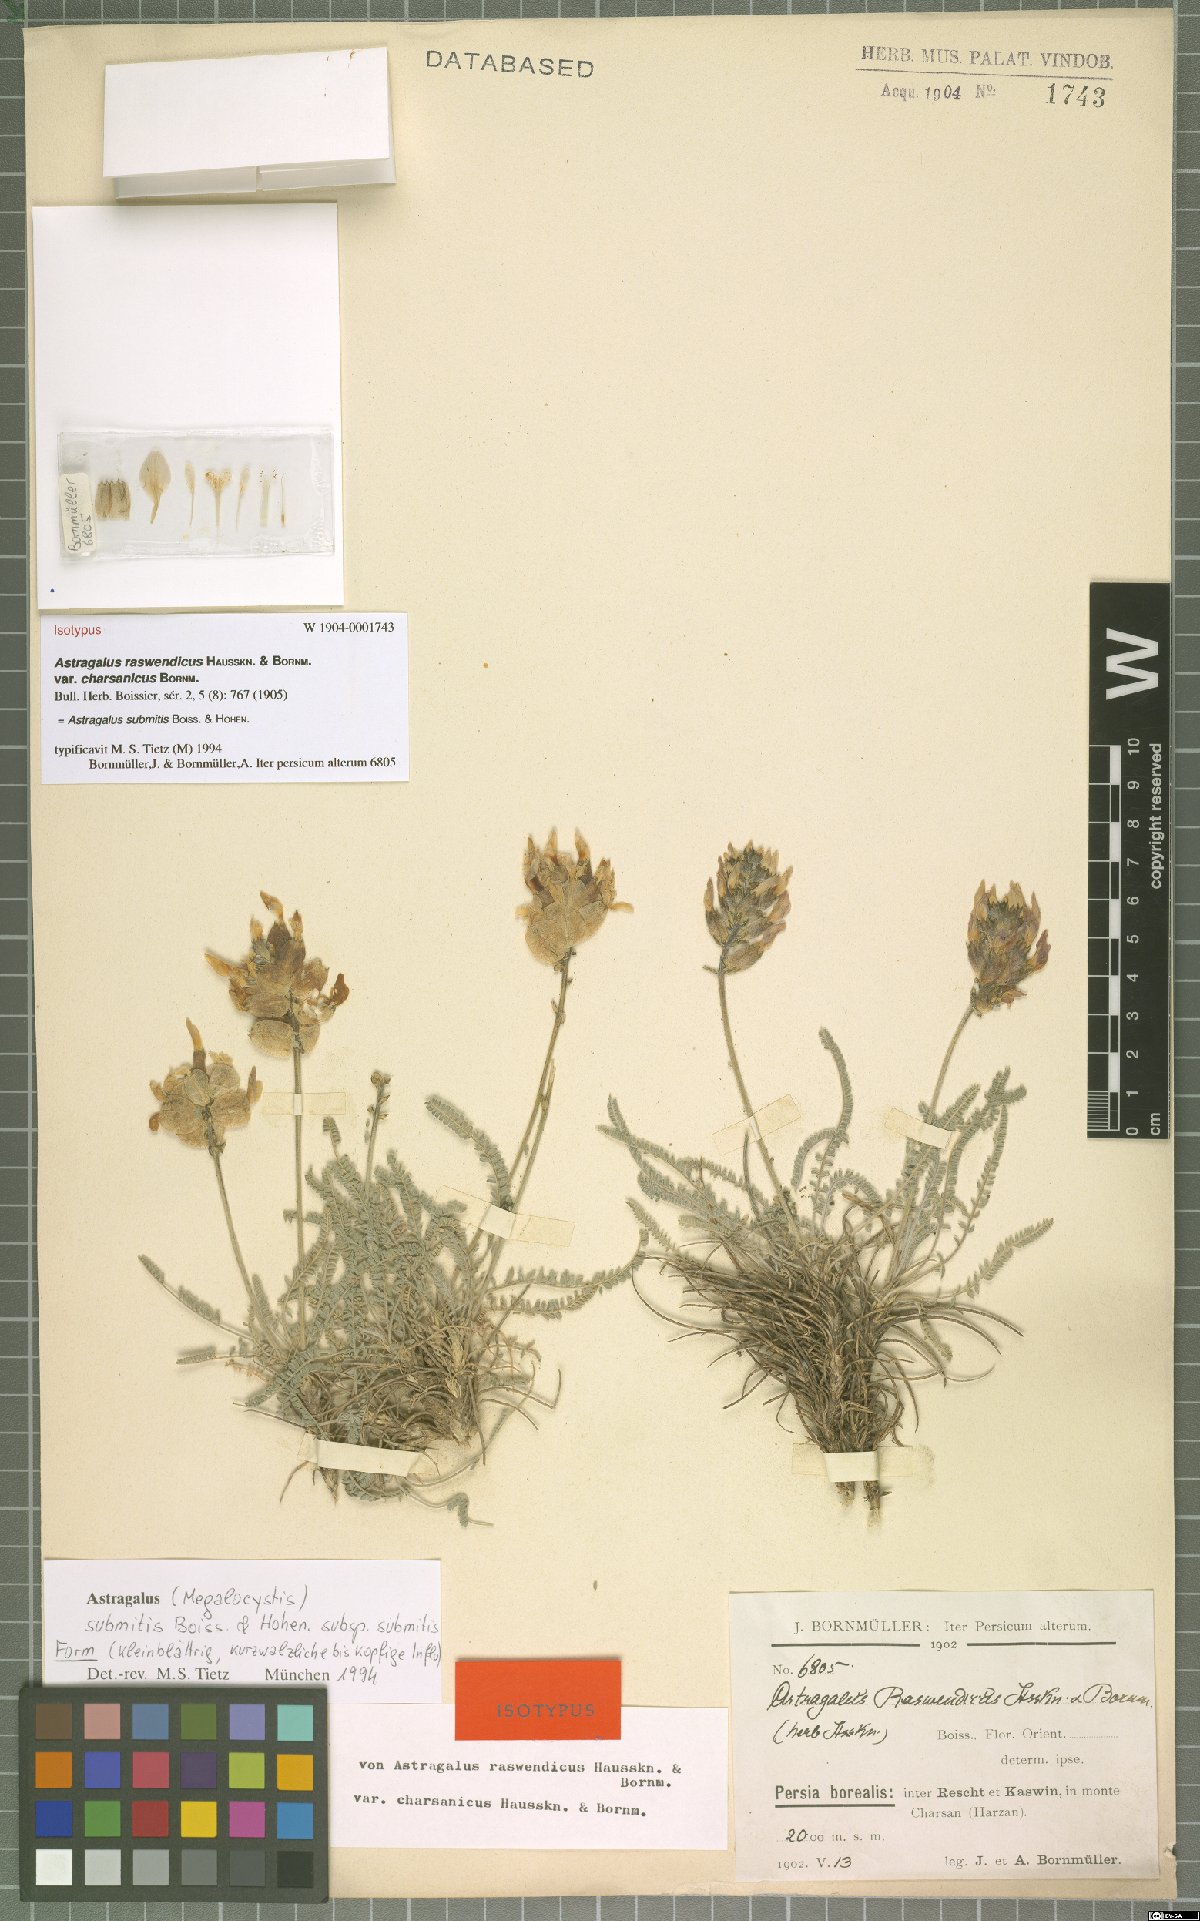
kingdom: Plantae
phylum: Tracheophyta
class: Magnoliopsida
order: Fabales
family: Fabaceae
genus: Astragalus
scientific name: Astragalus submitis
